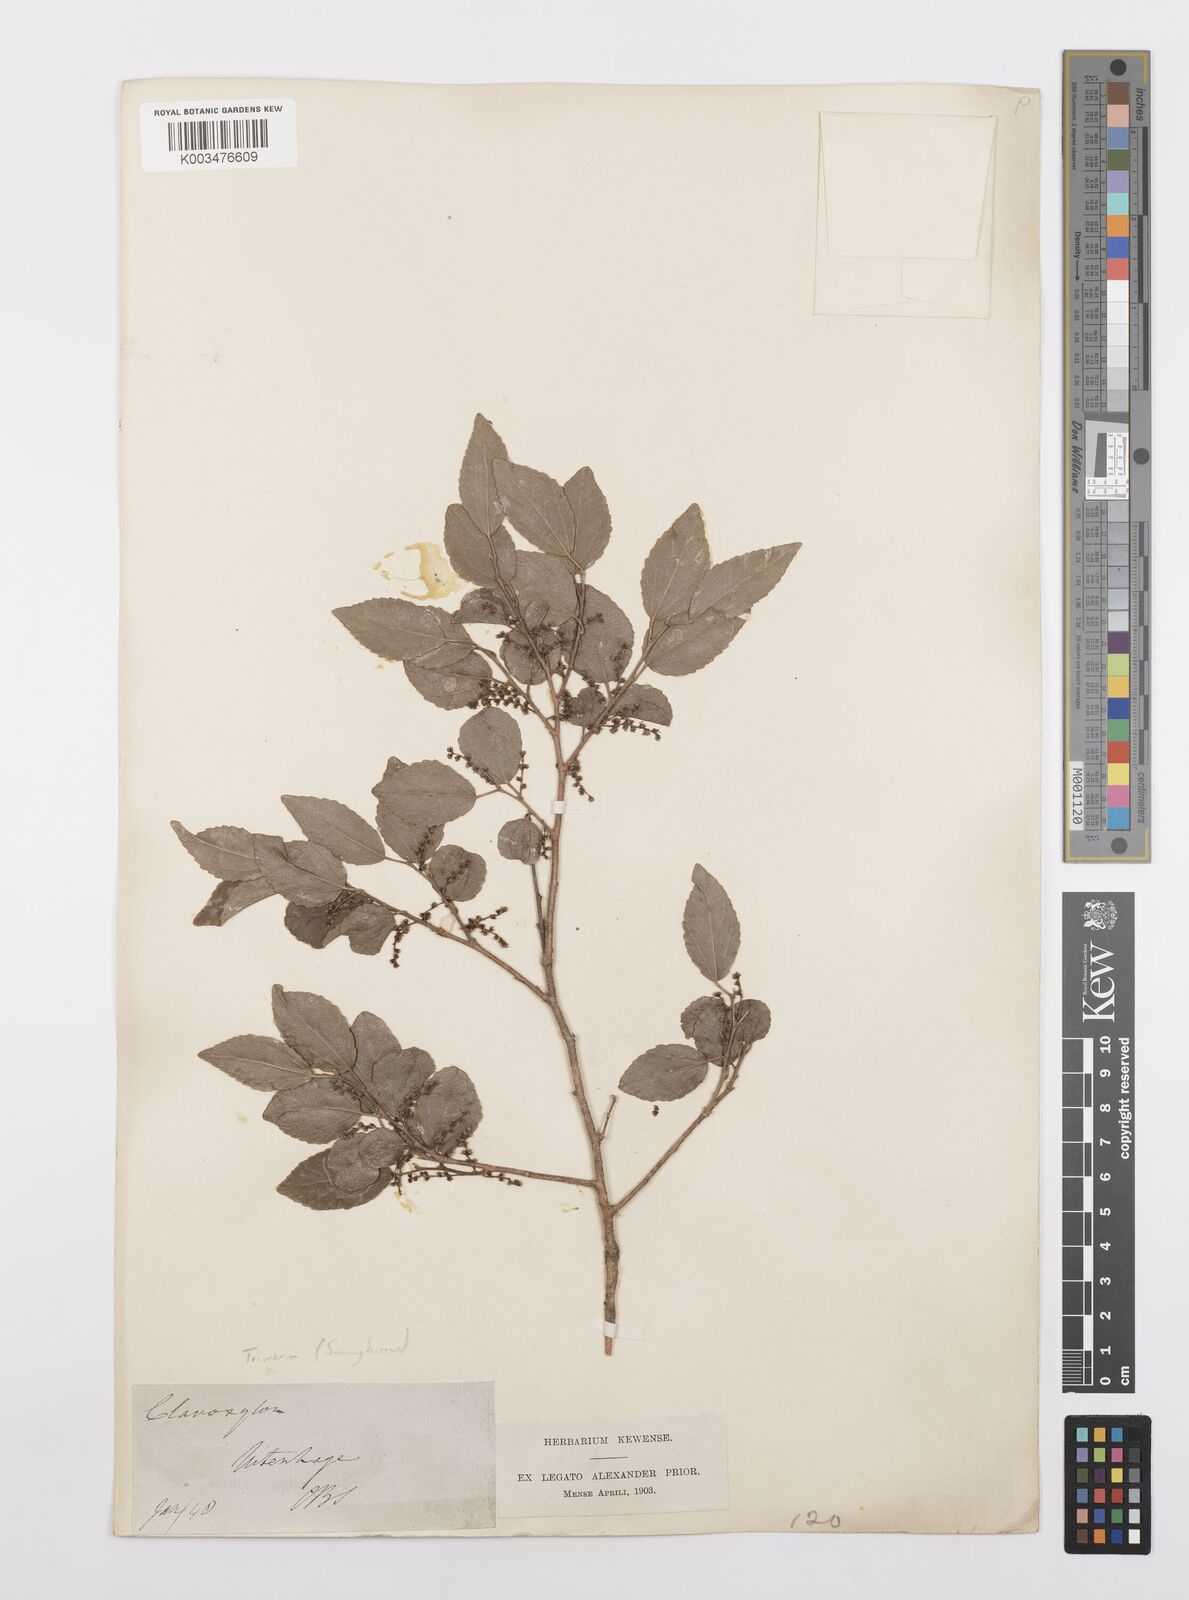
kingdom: Plantae
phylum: Tracheophyta
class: Magnoliopsida
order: Malpighiales
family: Salicaceae
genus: Trimeria
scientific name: Trimeria trinervis
